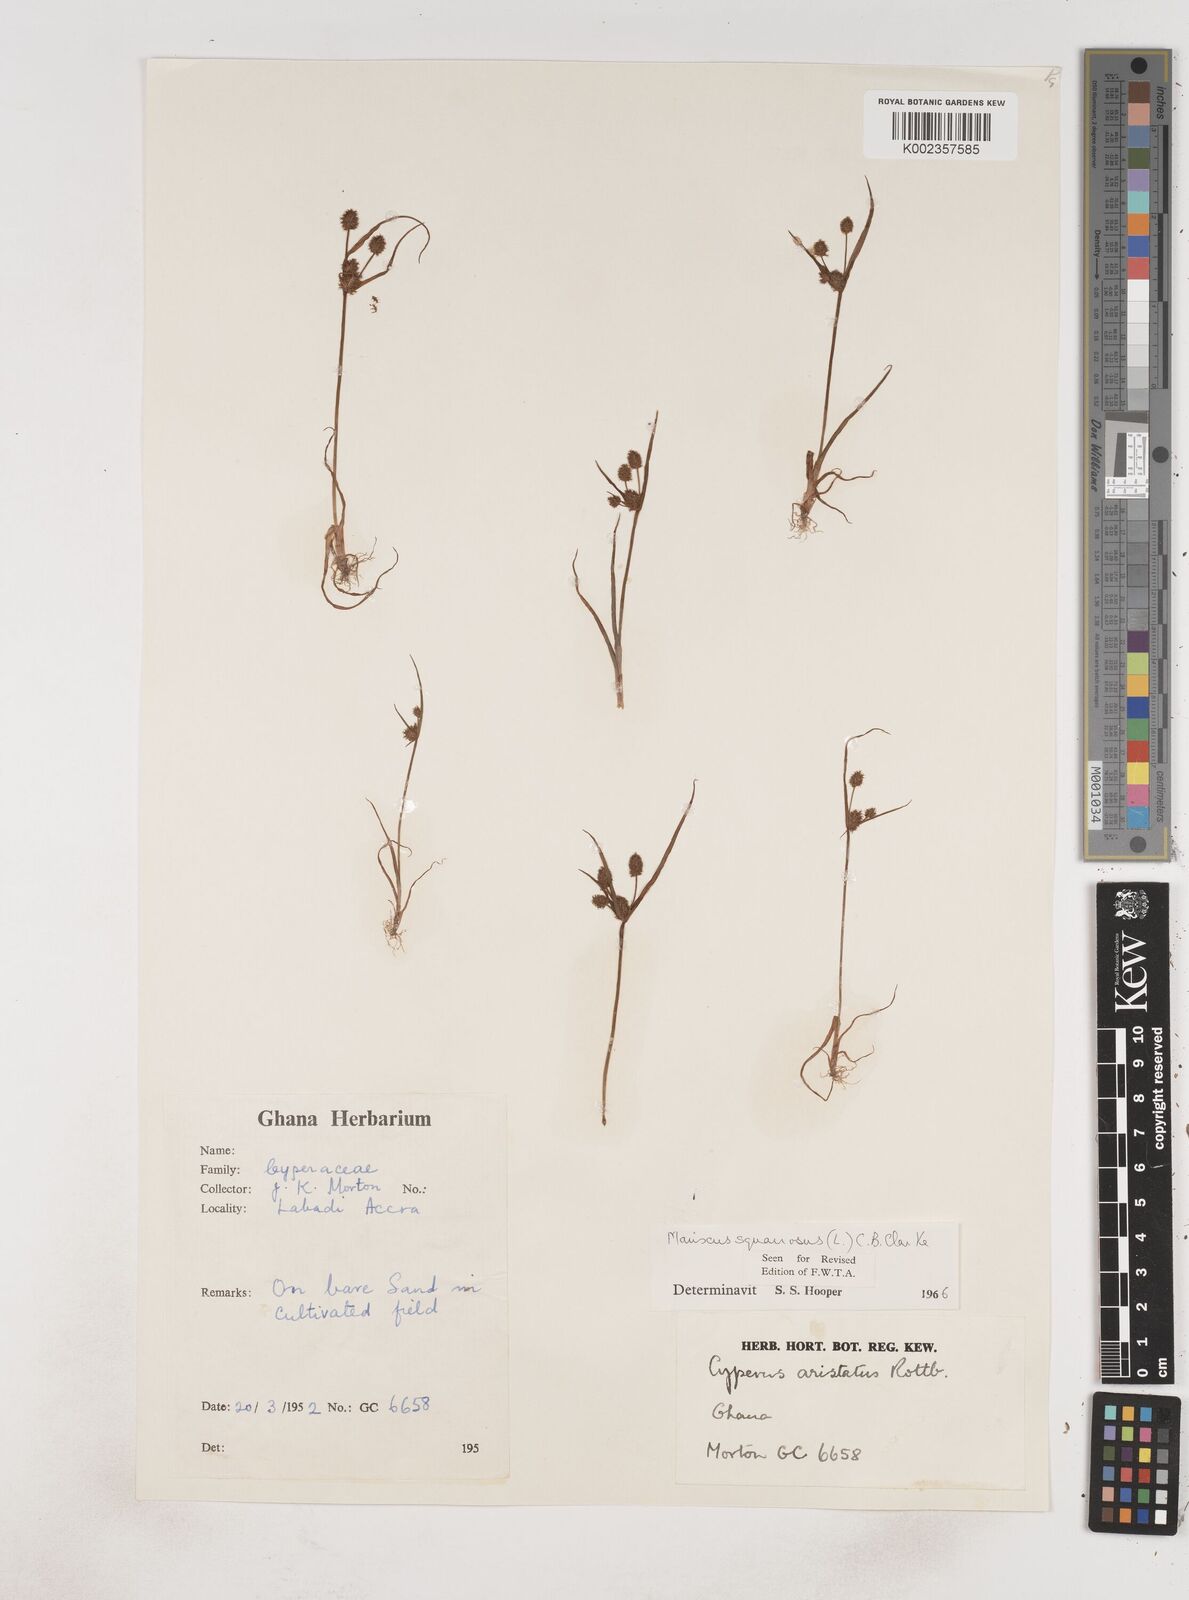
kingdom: Plantae
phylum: Tracheophyta
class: Liliopsida
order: Poales
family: Cyperaceae
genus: Cyperus
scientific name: Cyperus squarrosus
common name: Awned cyperus
